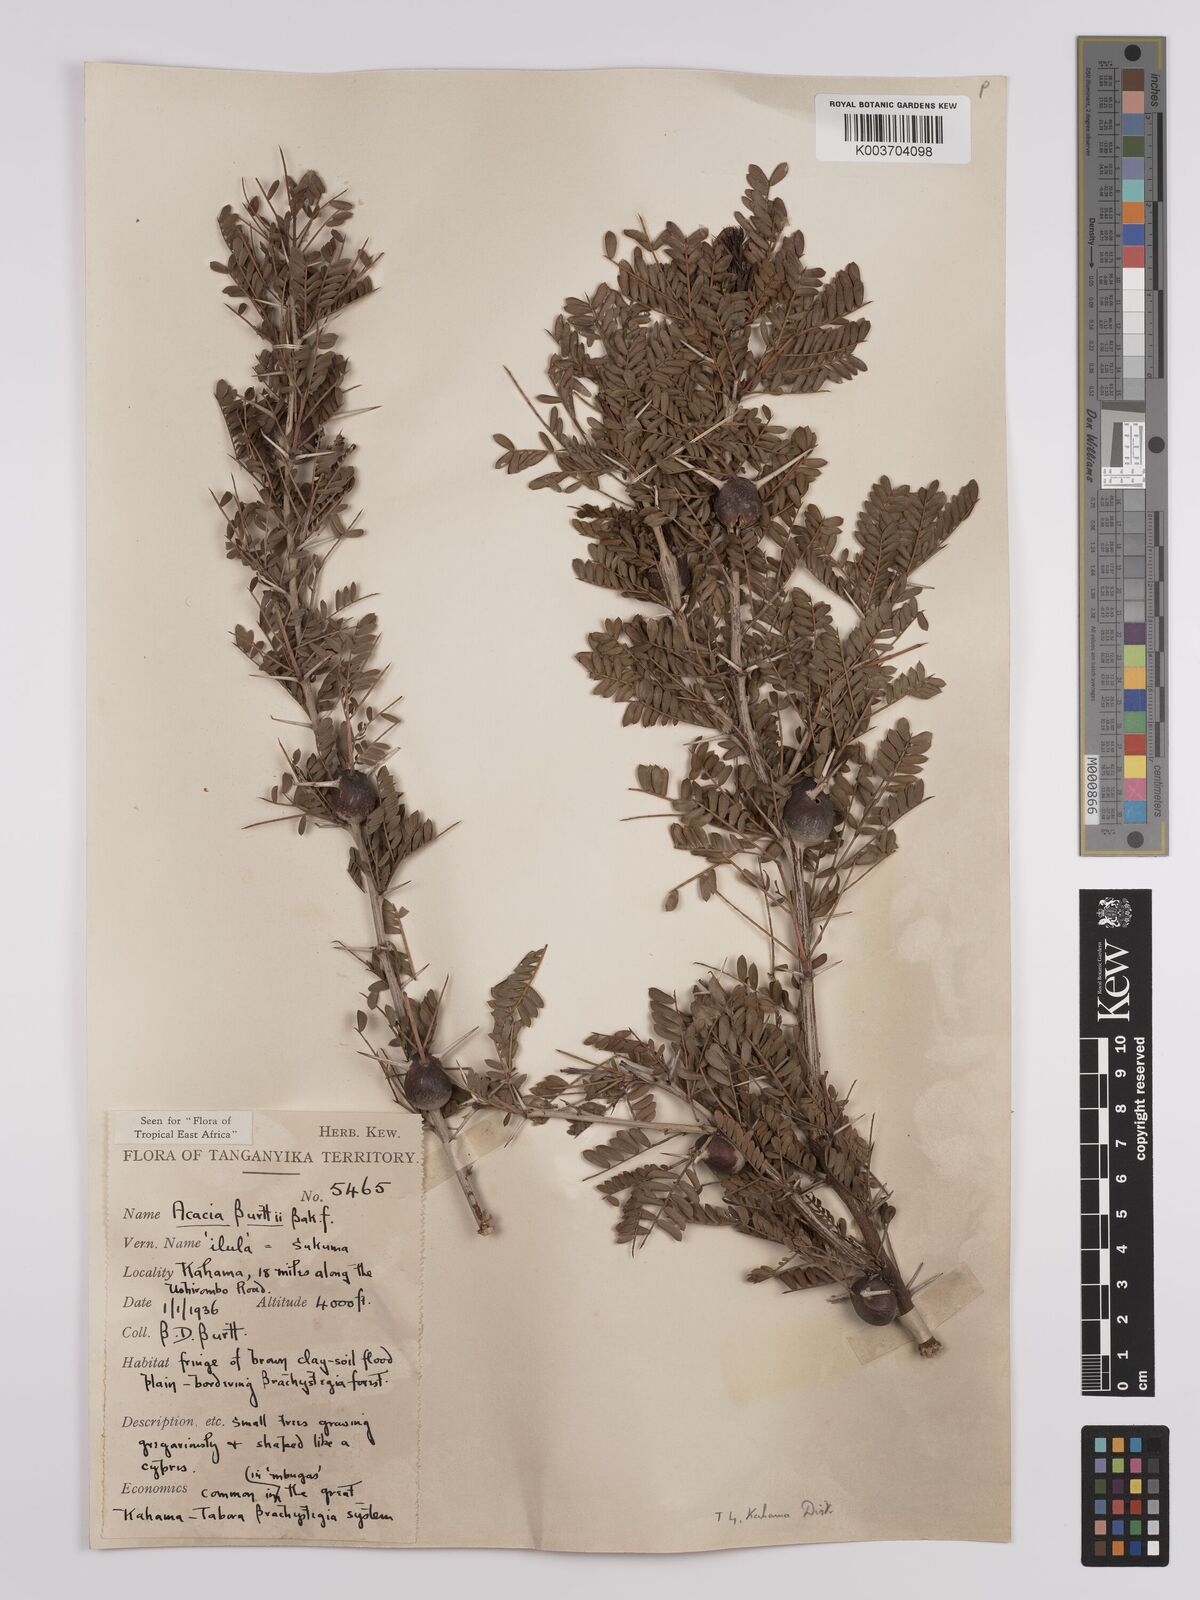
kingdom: Plantae
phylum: Tracheophyta
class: Magnoliopsida
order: Fabales
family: Fabaceae
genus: Vachellia
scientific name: Vachellia burttii
